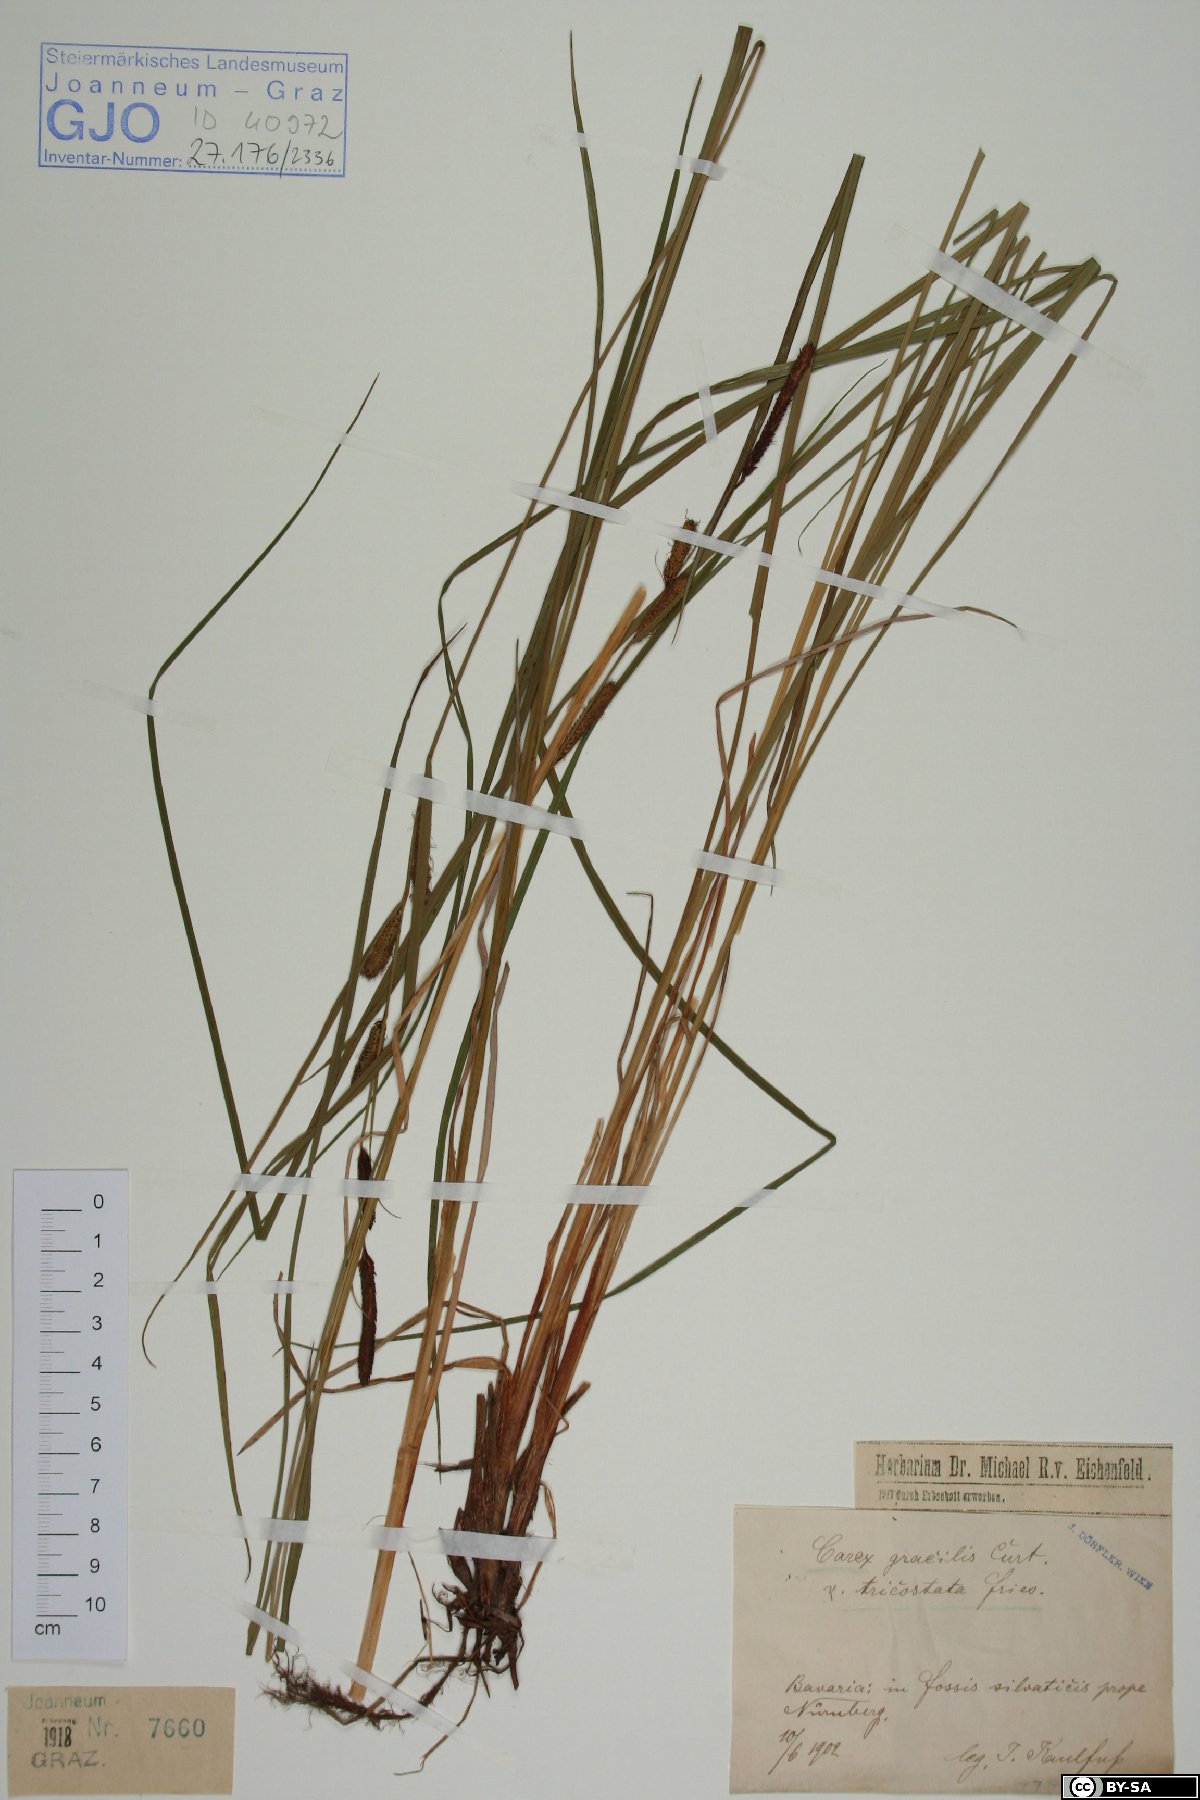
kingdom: Plantae
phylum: Tracheophyta
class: Liliopsida
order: Poales
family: Cyperaceae
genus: Carex
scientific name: Carex acuta
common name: Slender tufted-sedge
